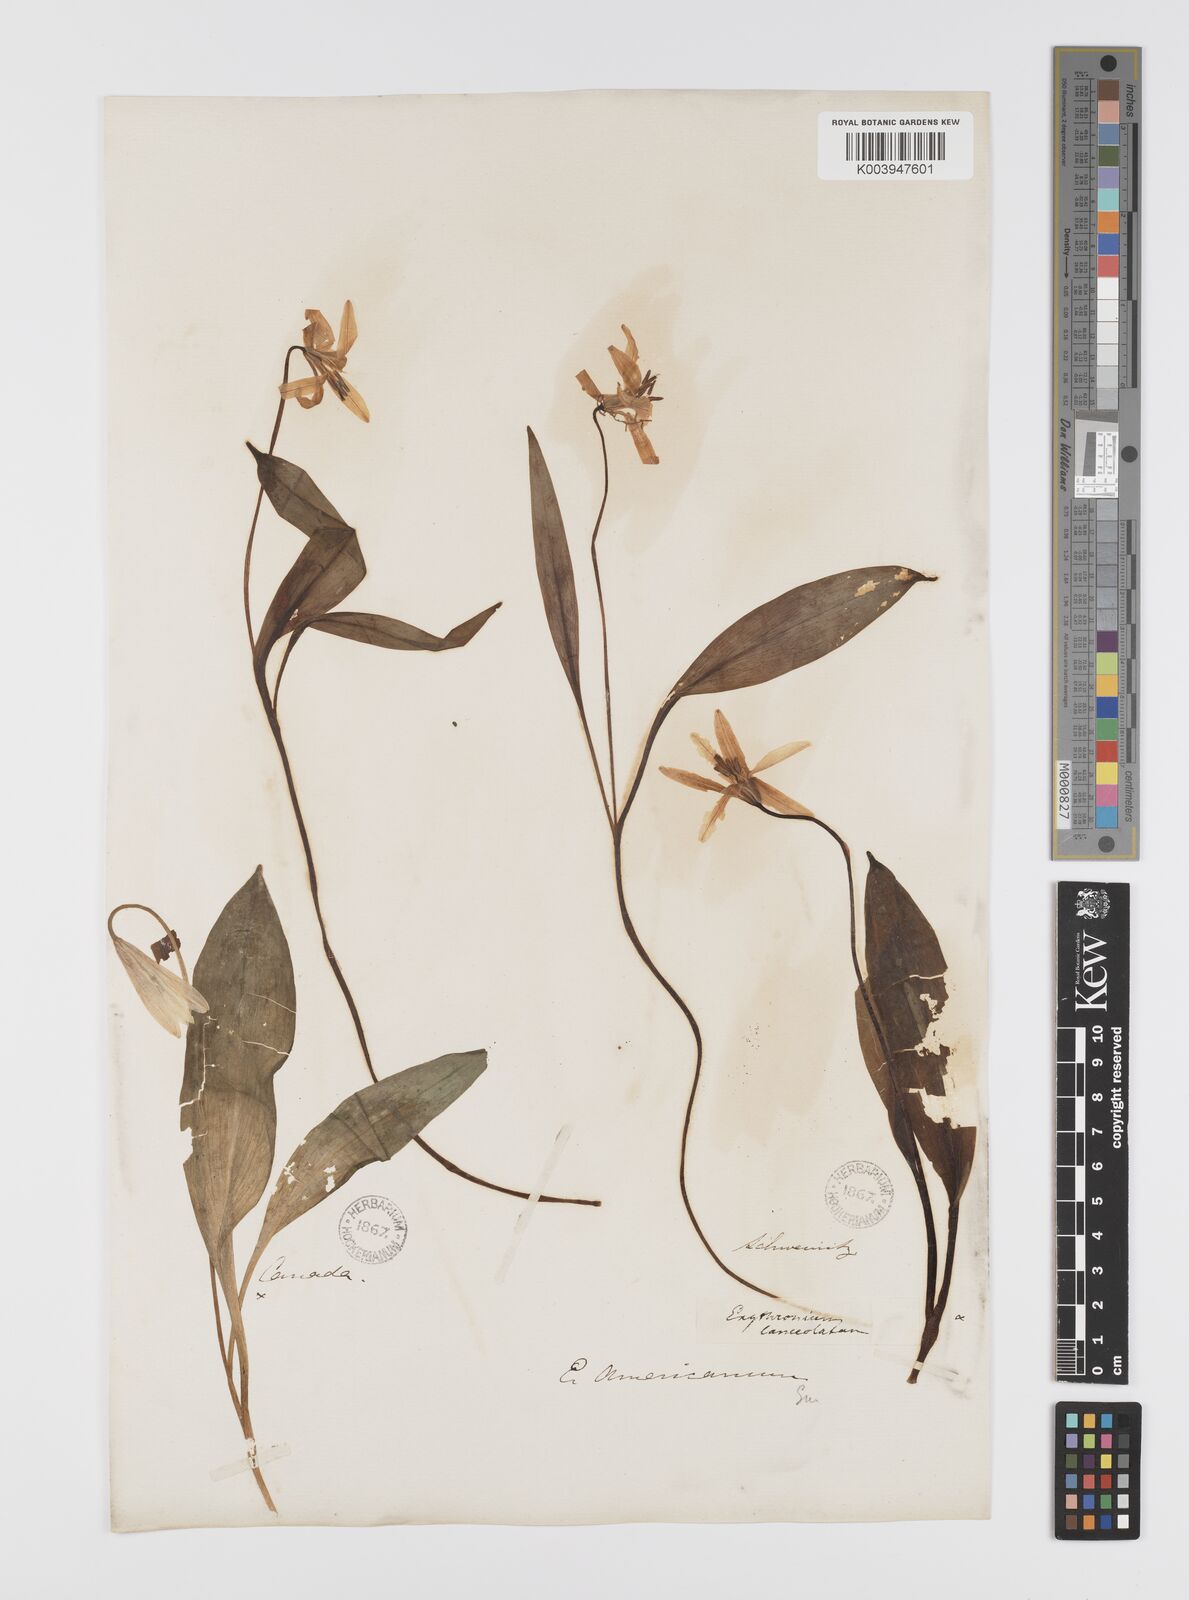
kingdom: Plantae
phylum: Tracheophyta
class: Liliopsida
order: Liliales
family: Liliaceae
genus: Erythronium
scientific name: Erythronium grandiflorum
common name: Avalanche-lily
